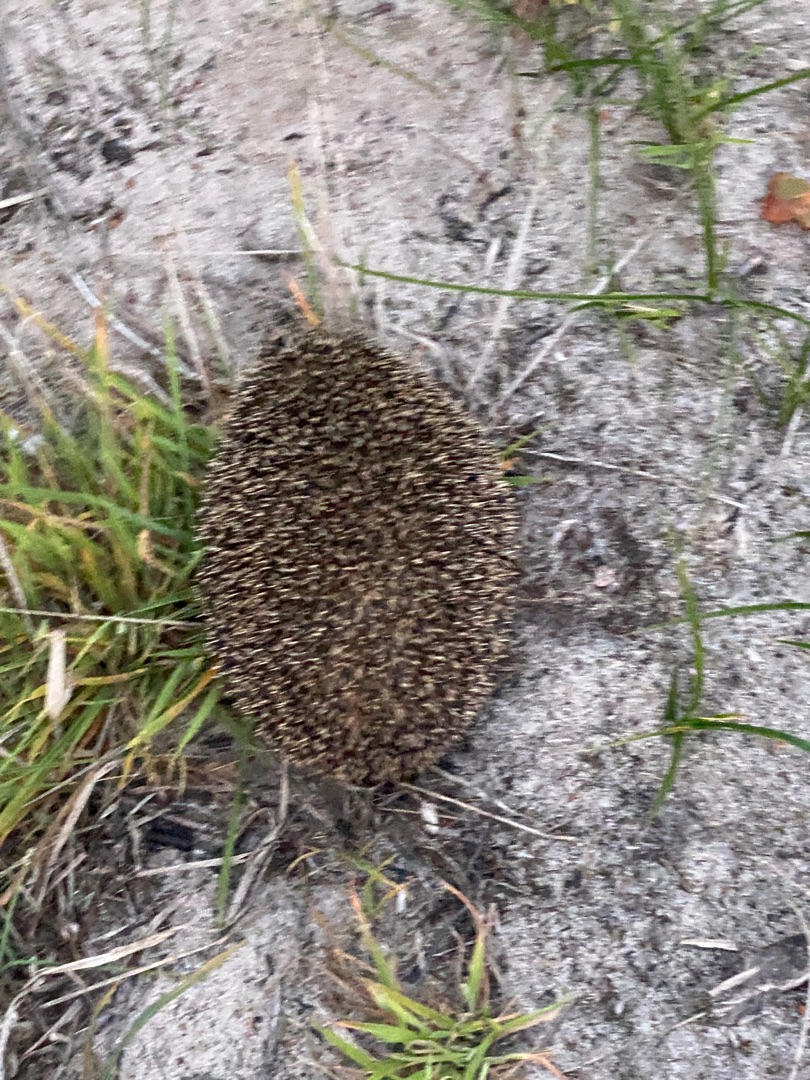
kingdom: Animalia
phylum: Chordata
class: Mammalia
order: Erinaceomorpha
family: Erinaceidae
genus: Erinaceus
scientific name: Erinaceus europaeus
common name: Pindsvin
